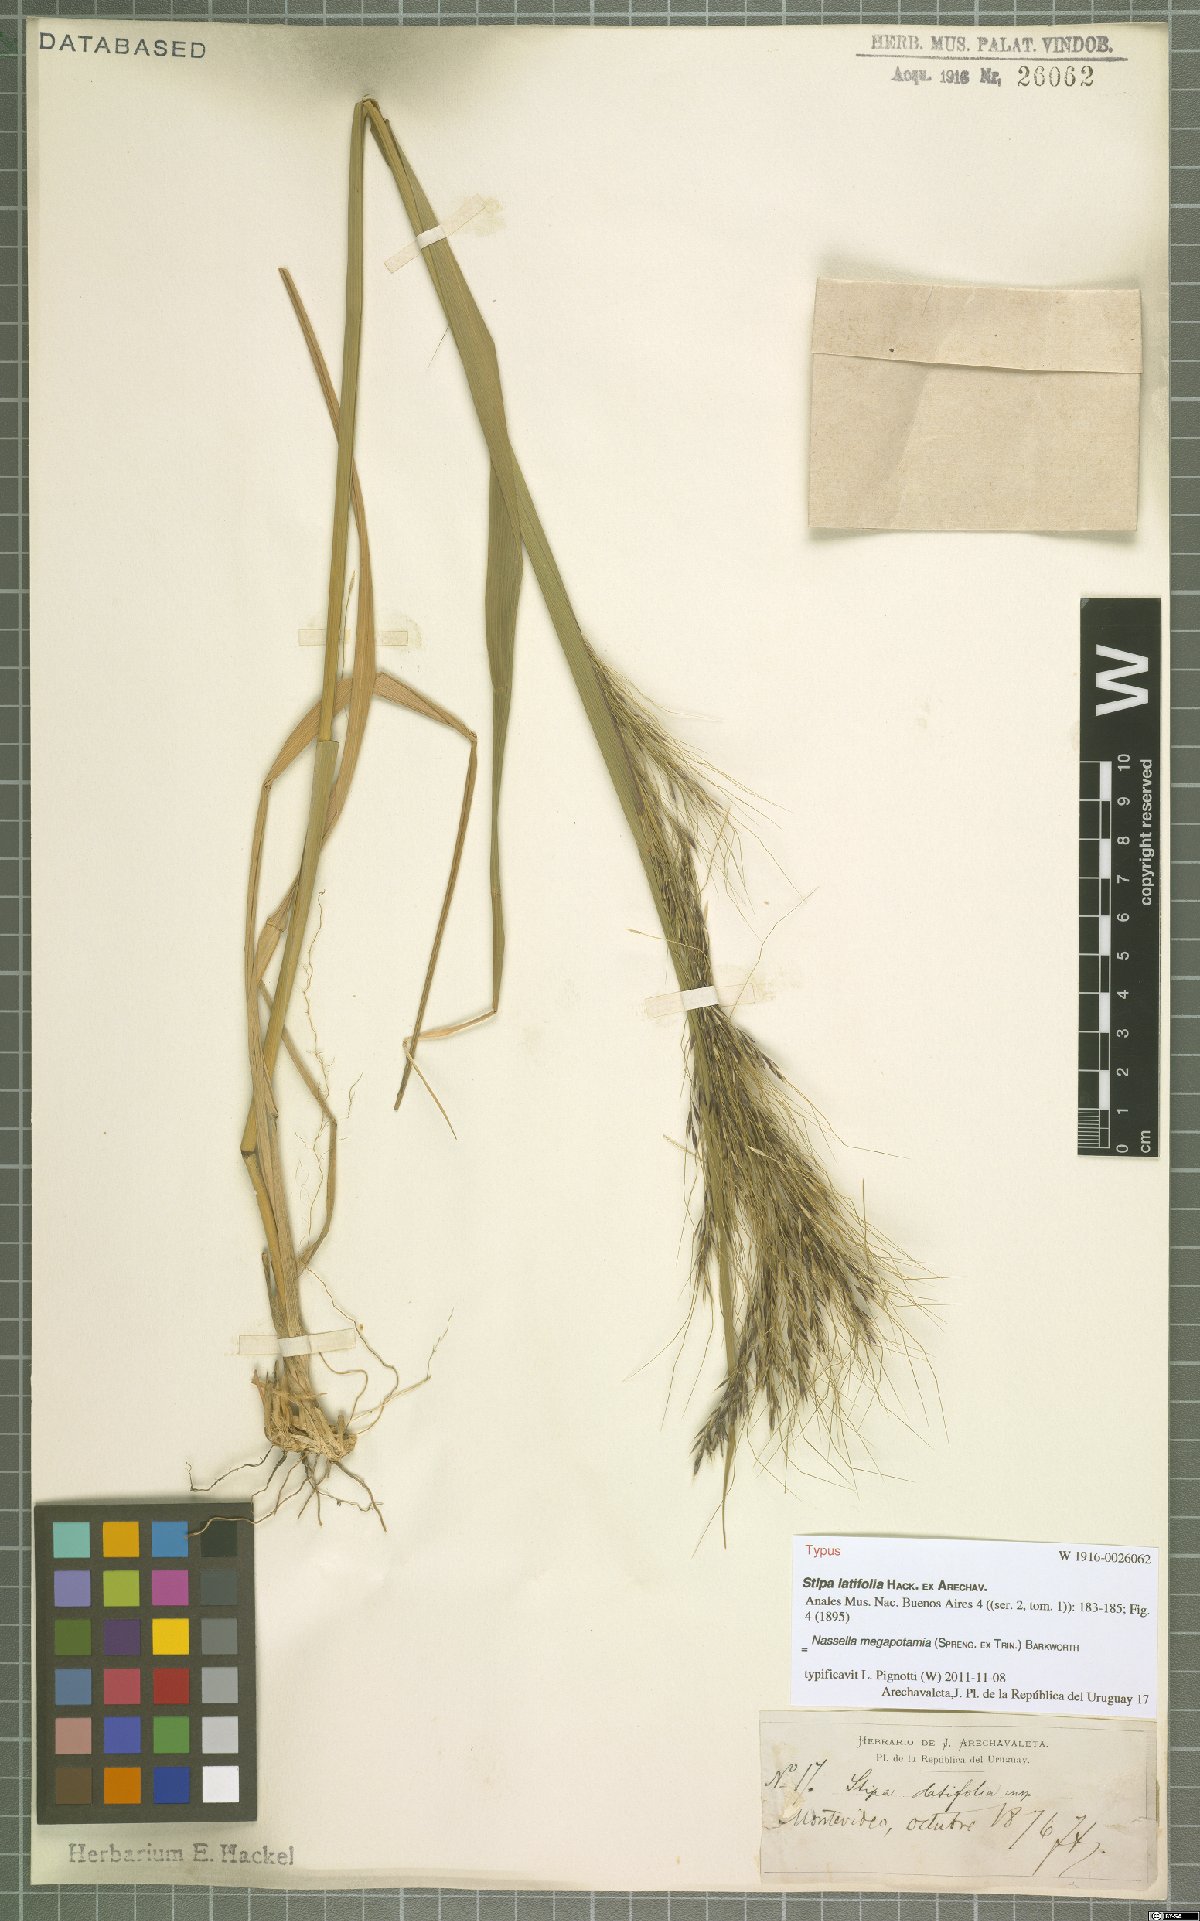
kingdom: Plantae
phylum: Tracheophyta
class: Liliopsida
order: Poales
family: Poaceae
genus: Jarava
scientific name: Jarava filifolia
